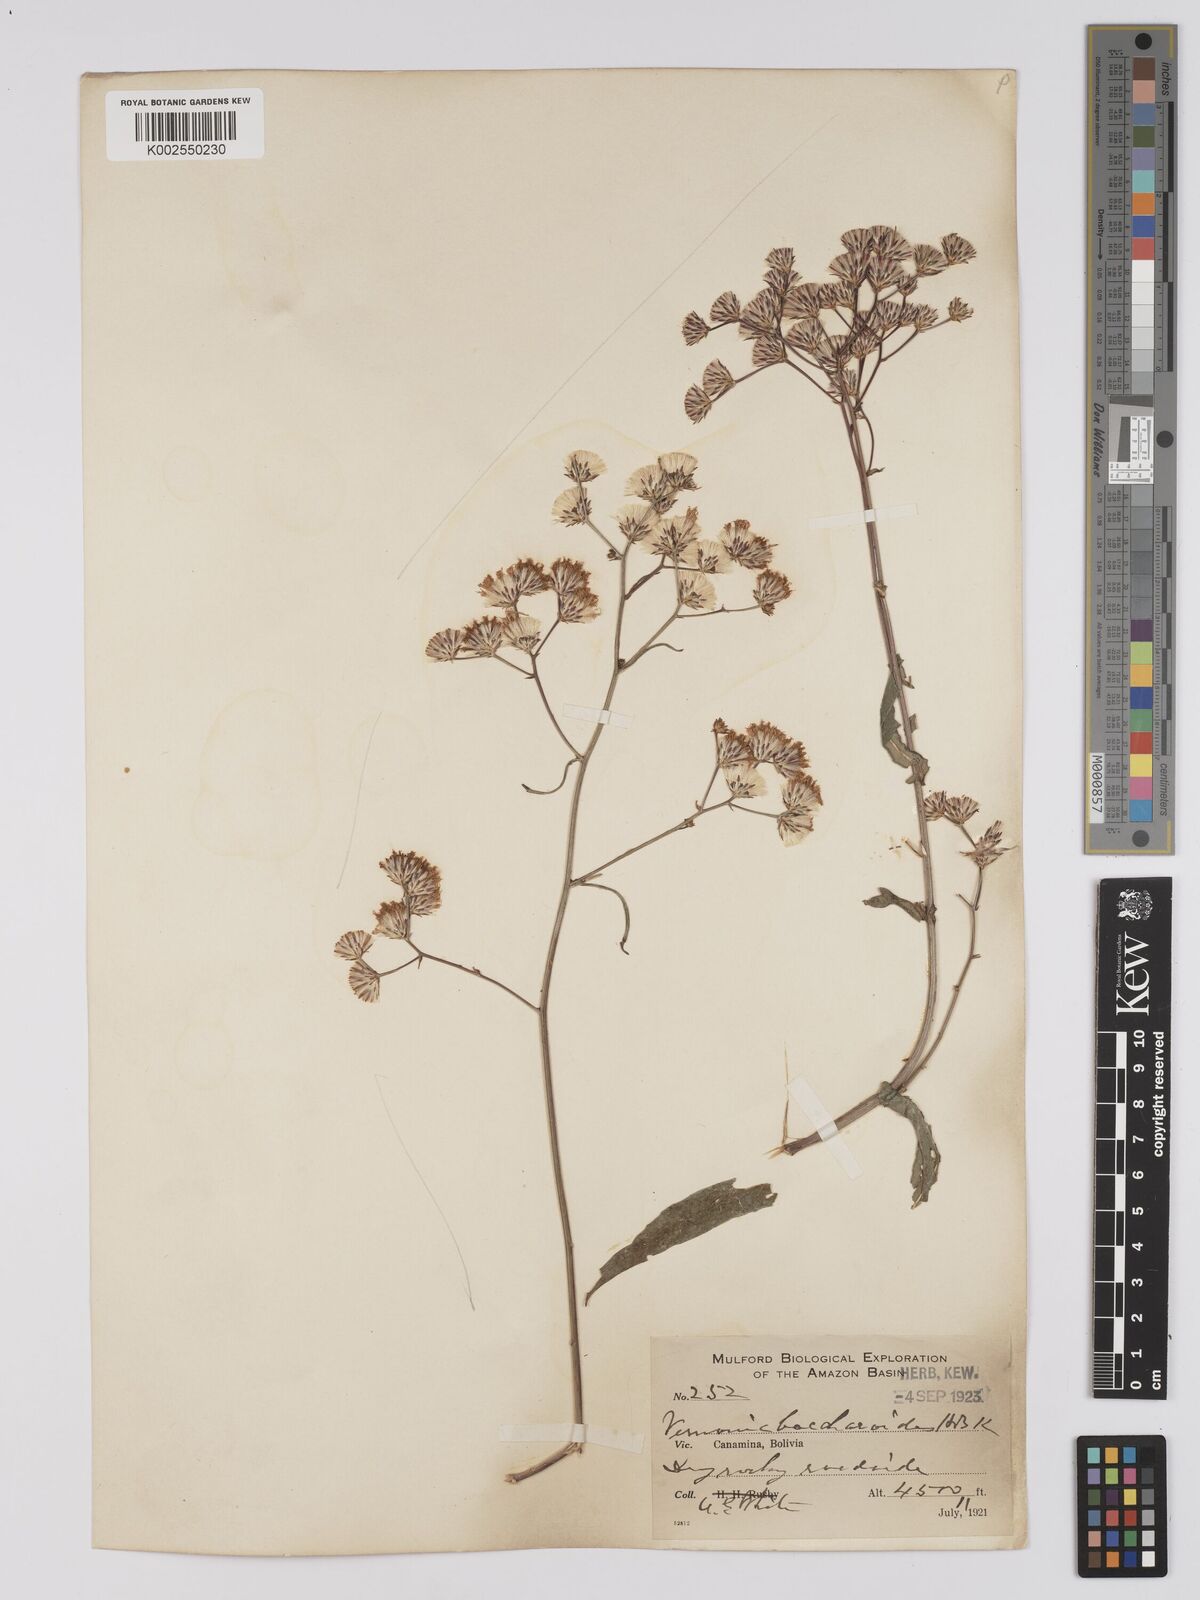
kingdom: Plantae
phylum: Tracheophyta
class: Magnoliopsida
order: Asterales
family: Asteraceae
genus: Vernonanthura
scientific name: Vernonanthura patens
